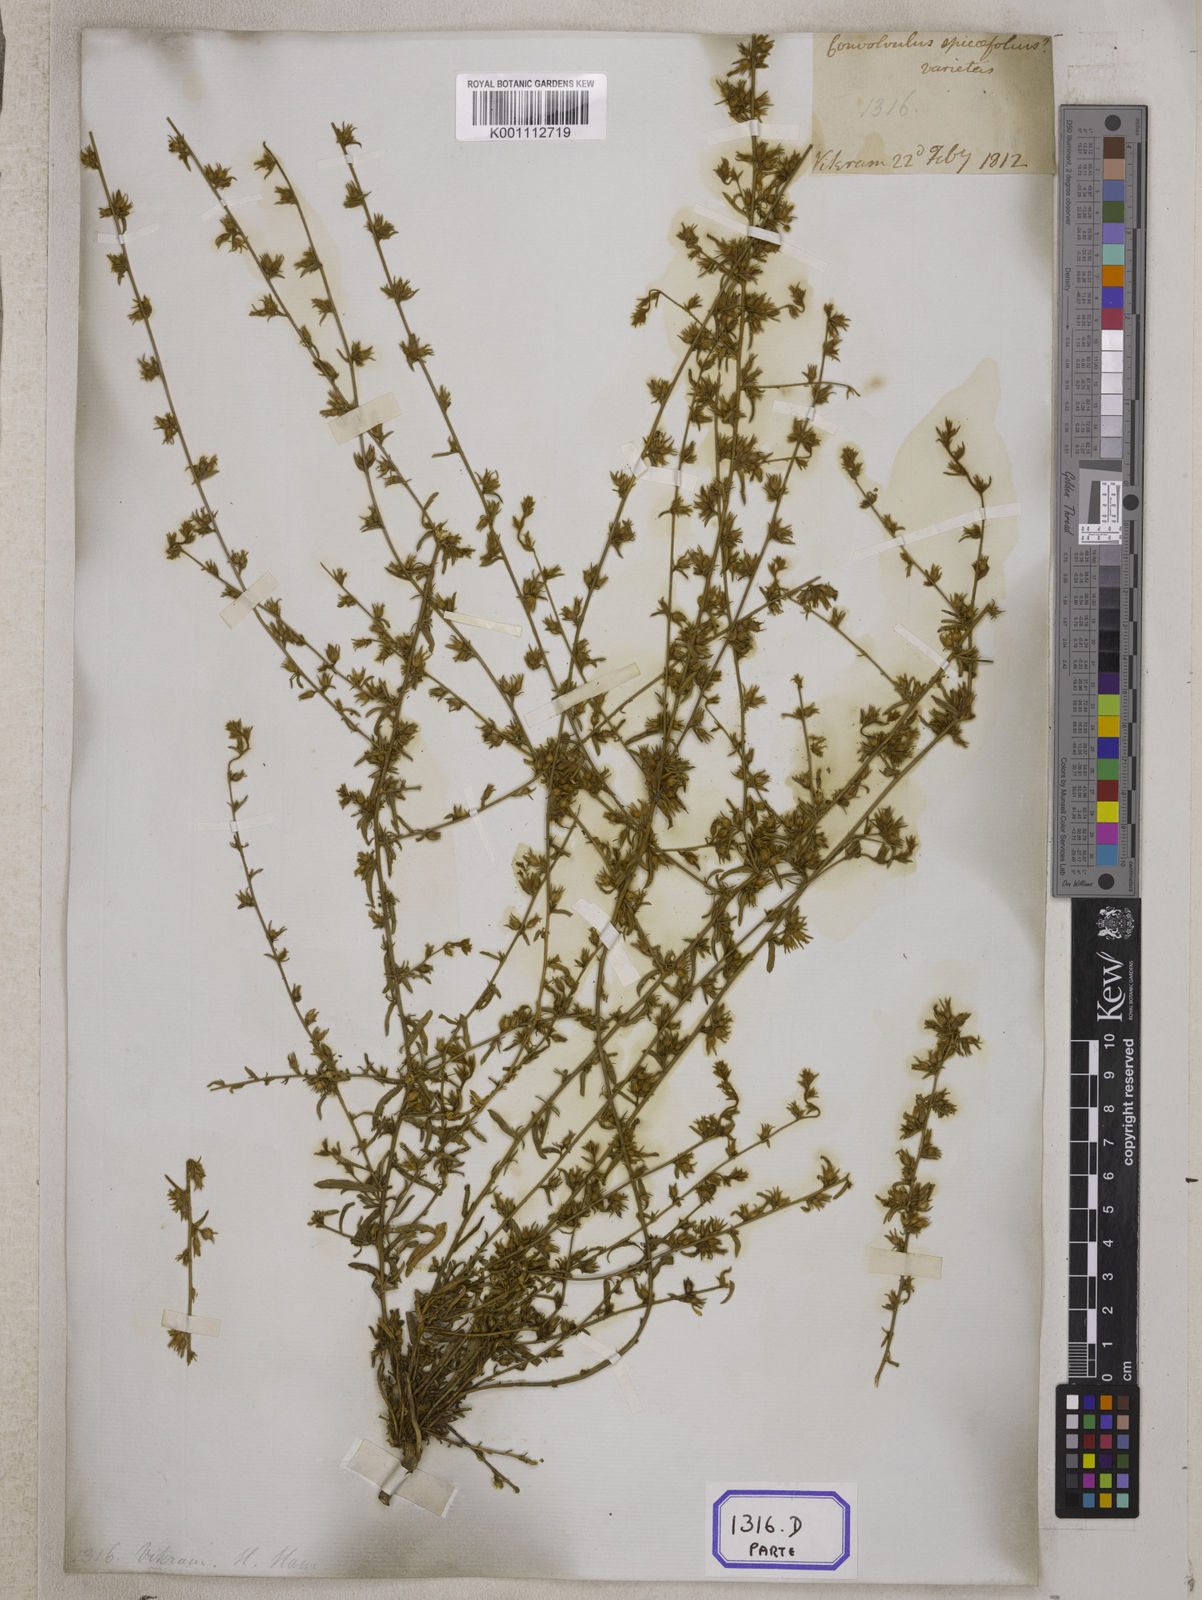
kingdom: Plantae
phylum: Tracheophyta
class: Magnoliopsida
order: Solanales
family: Convolvulaceae
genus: Evolvulus
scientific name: Evolvulus
